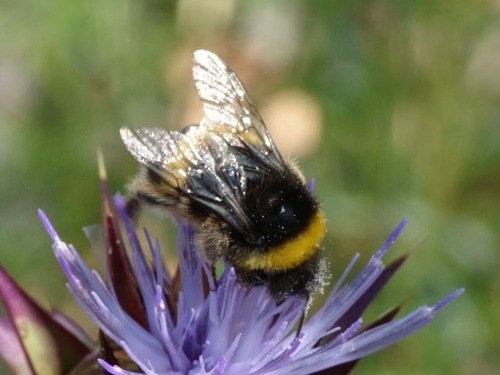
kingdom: Animalia
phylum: Arthropoda
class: Insecta
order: Hymenoptera
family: Apidae
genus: Bombus
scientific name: Bombus terrestris
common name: Buff-tailed bumblebee
